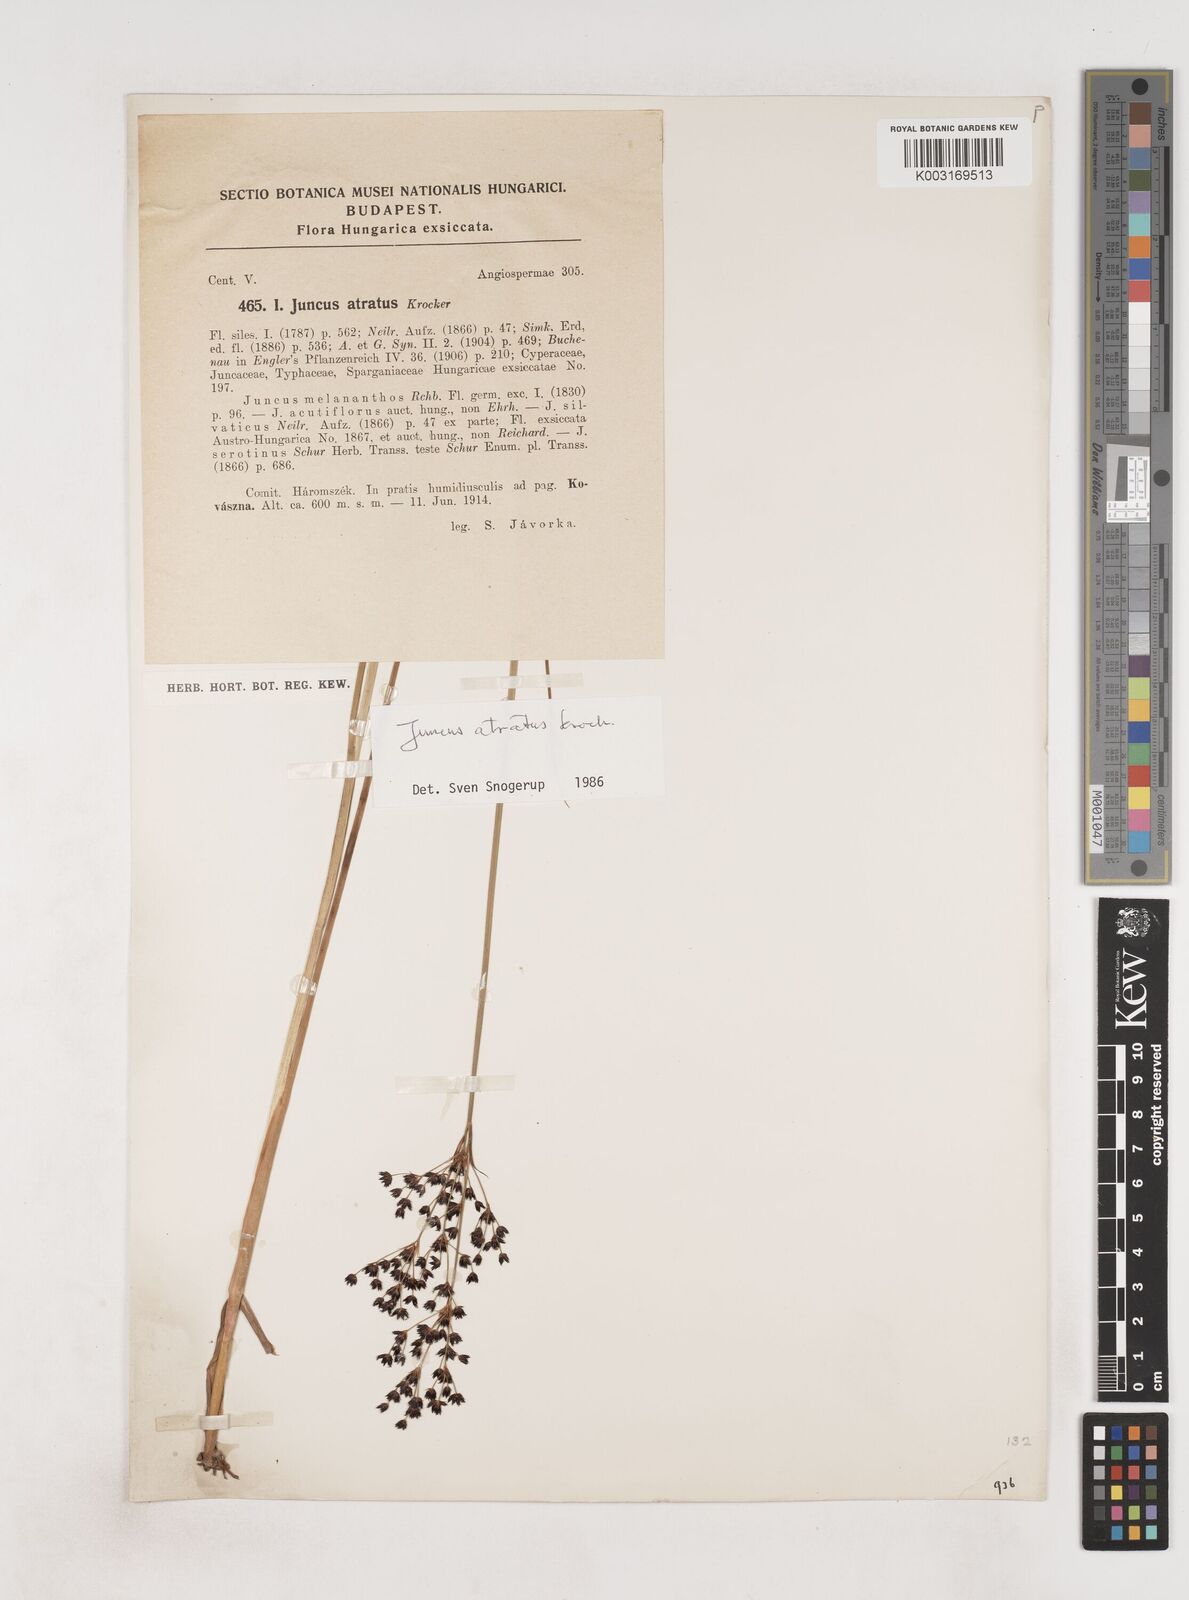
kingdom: Plantae
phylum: Tracheophyta
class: Liliopsida
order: Poales
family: Juncaceae
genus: Juncus
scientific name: Juncus atratus
